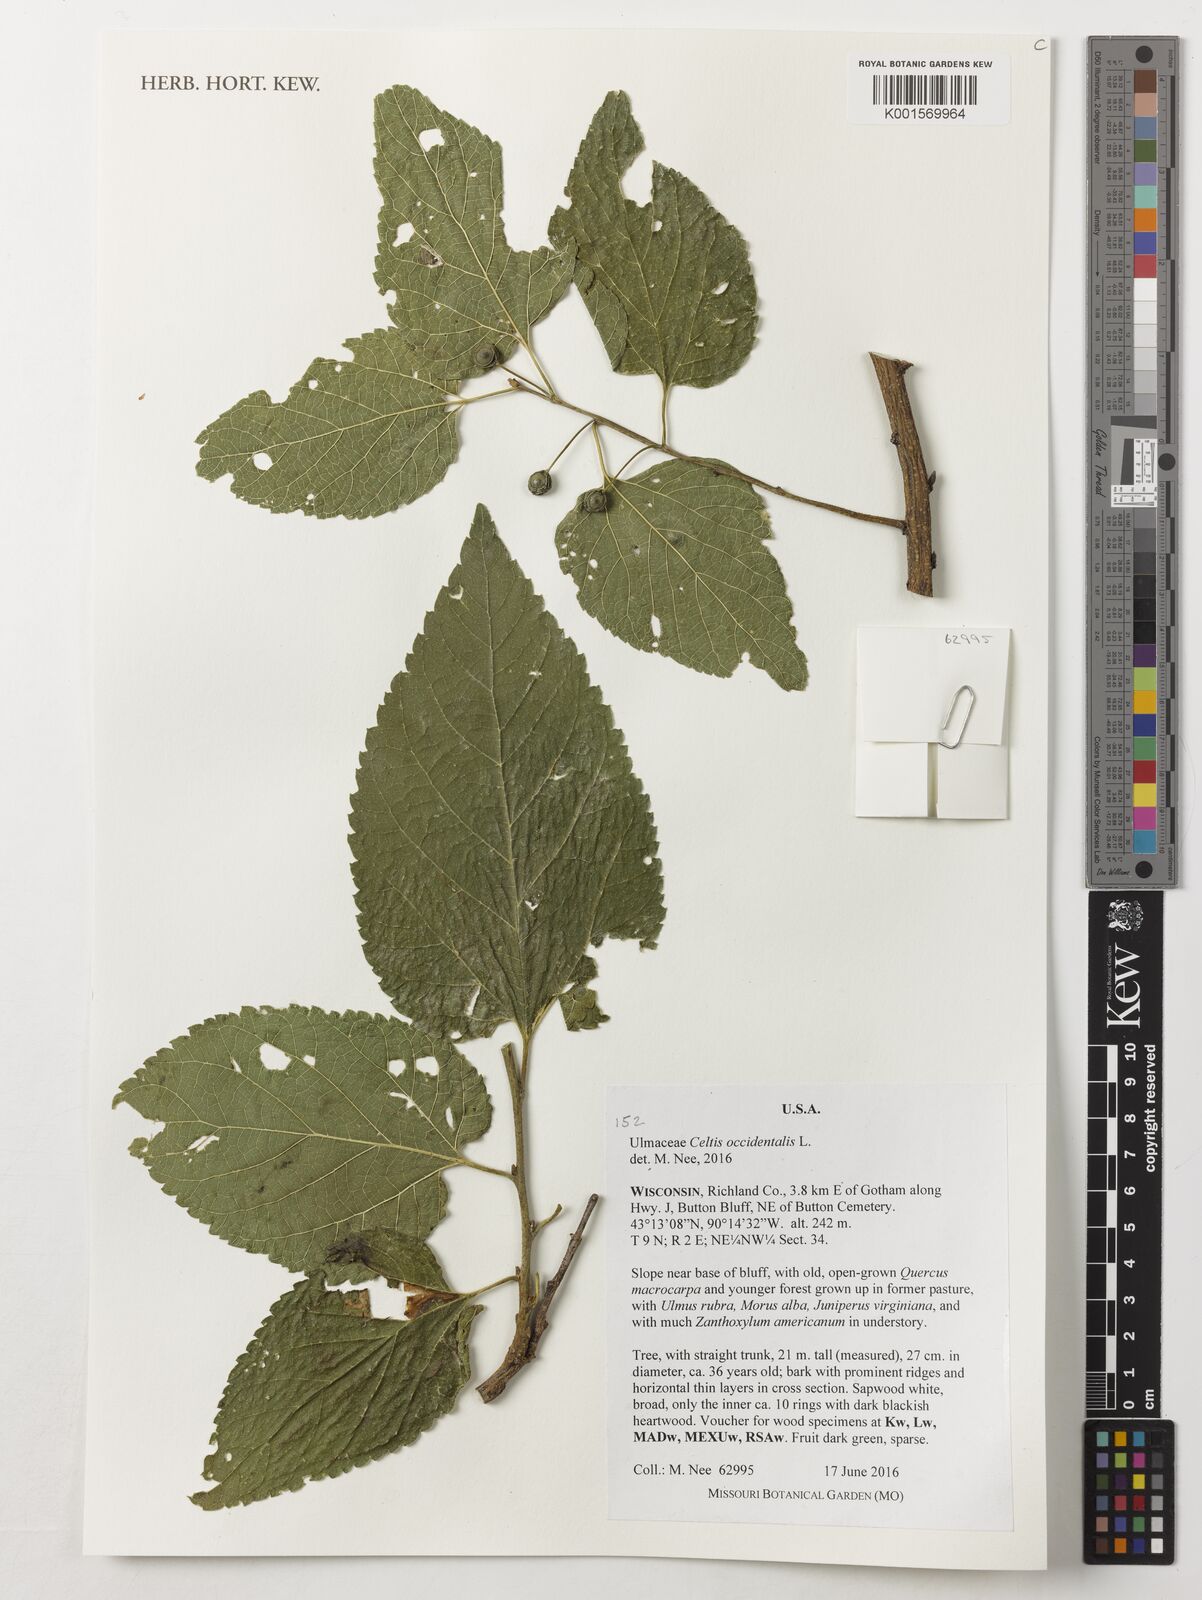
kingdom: Plantae
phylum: Tracheophyta
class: Magnoliopsida
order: Rosales
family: Cannabaceae
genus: Celtis
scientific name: Celtis occidentalis
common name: Common hackberry
